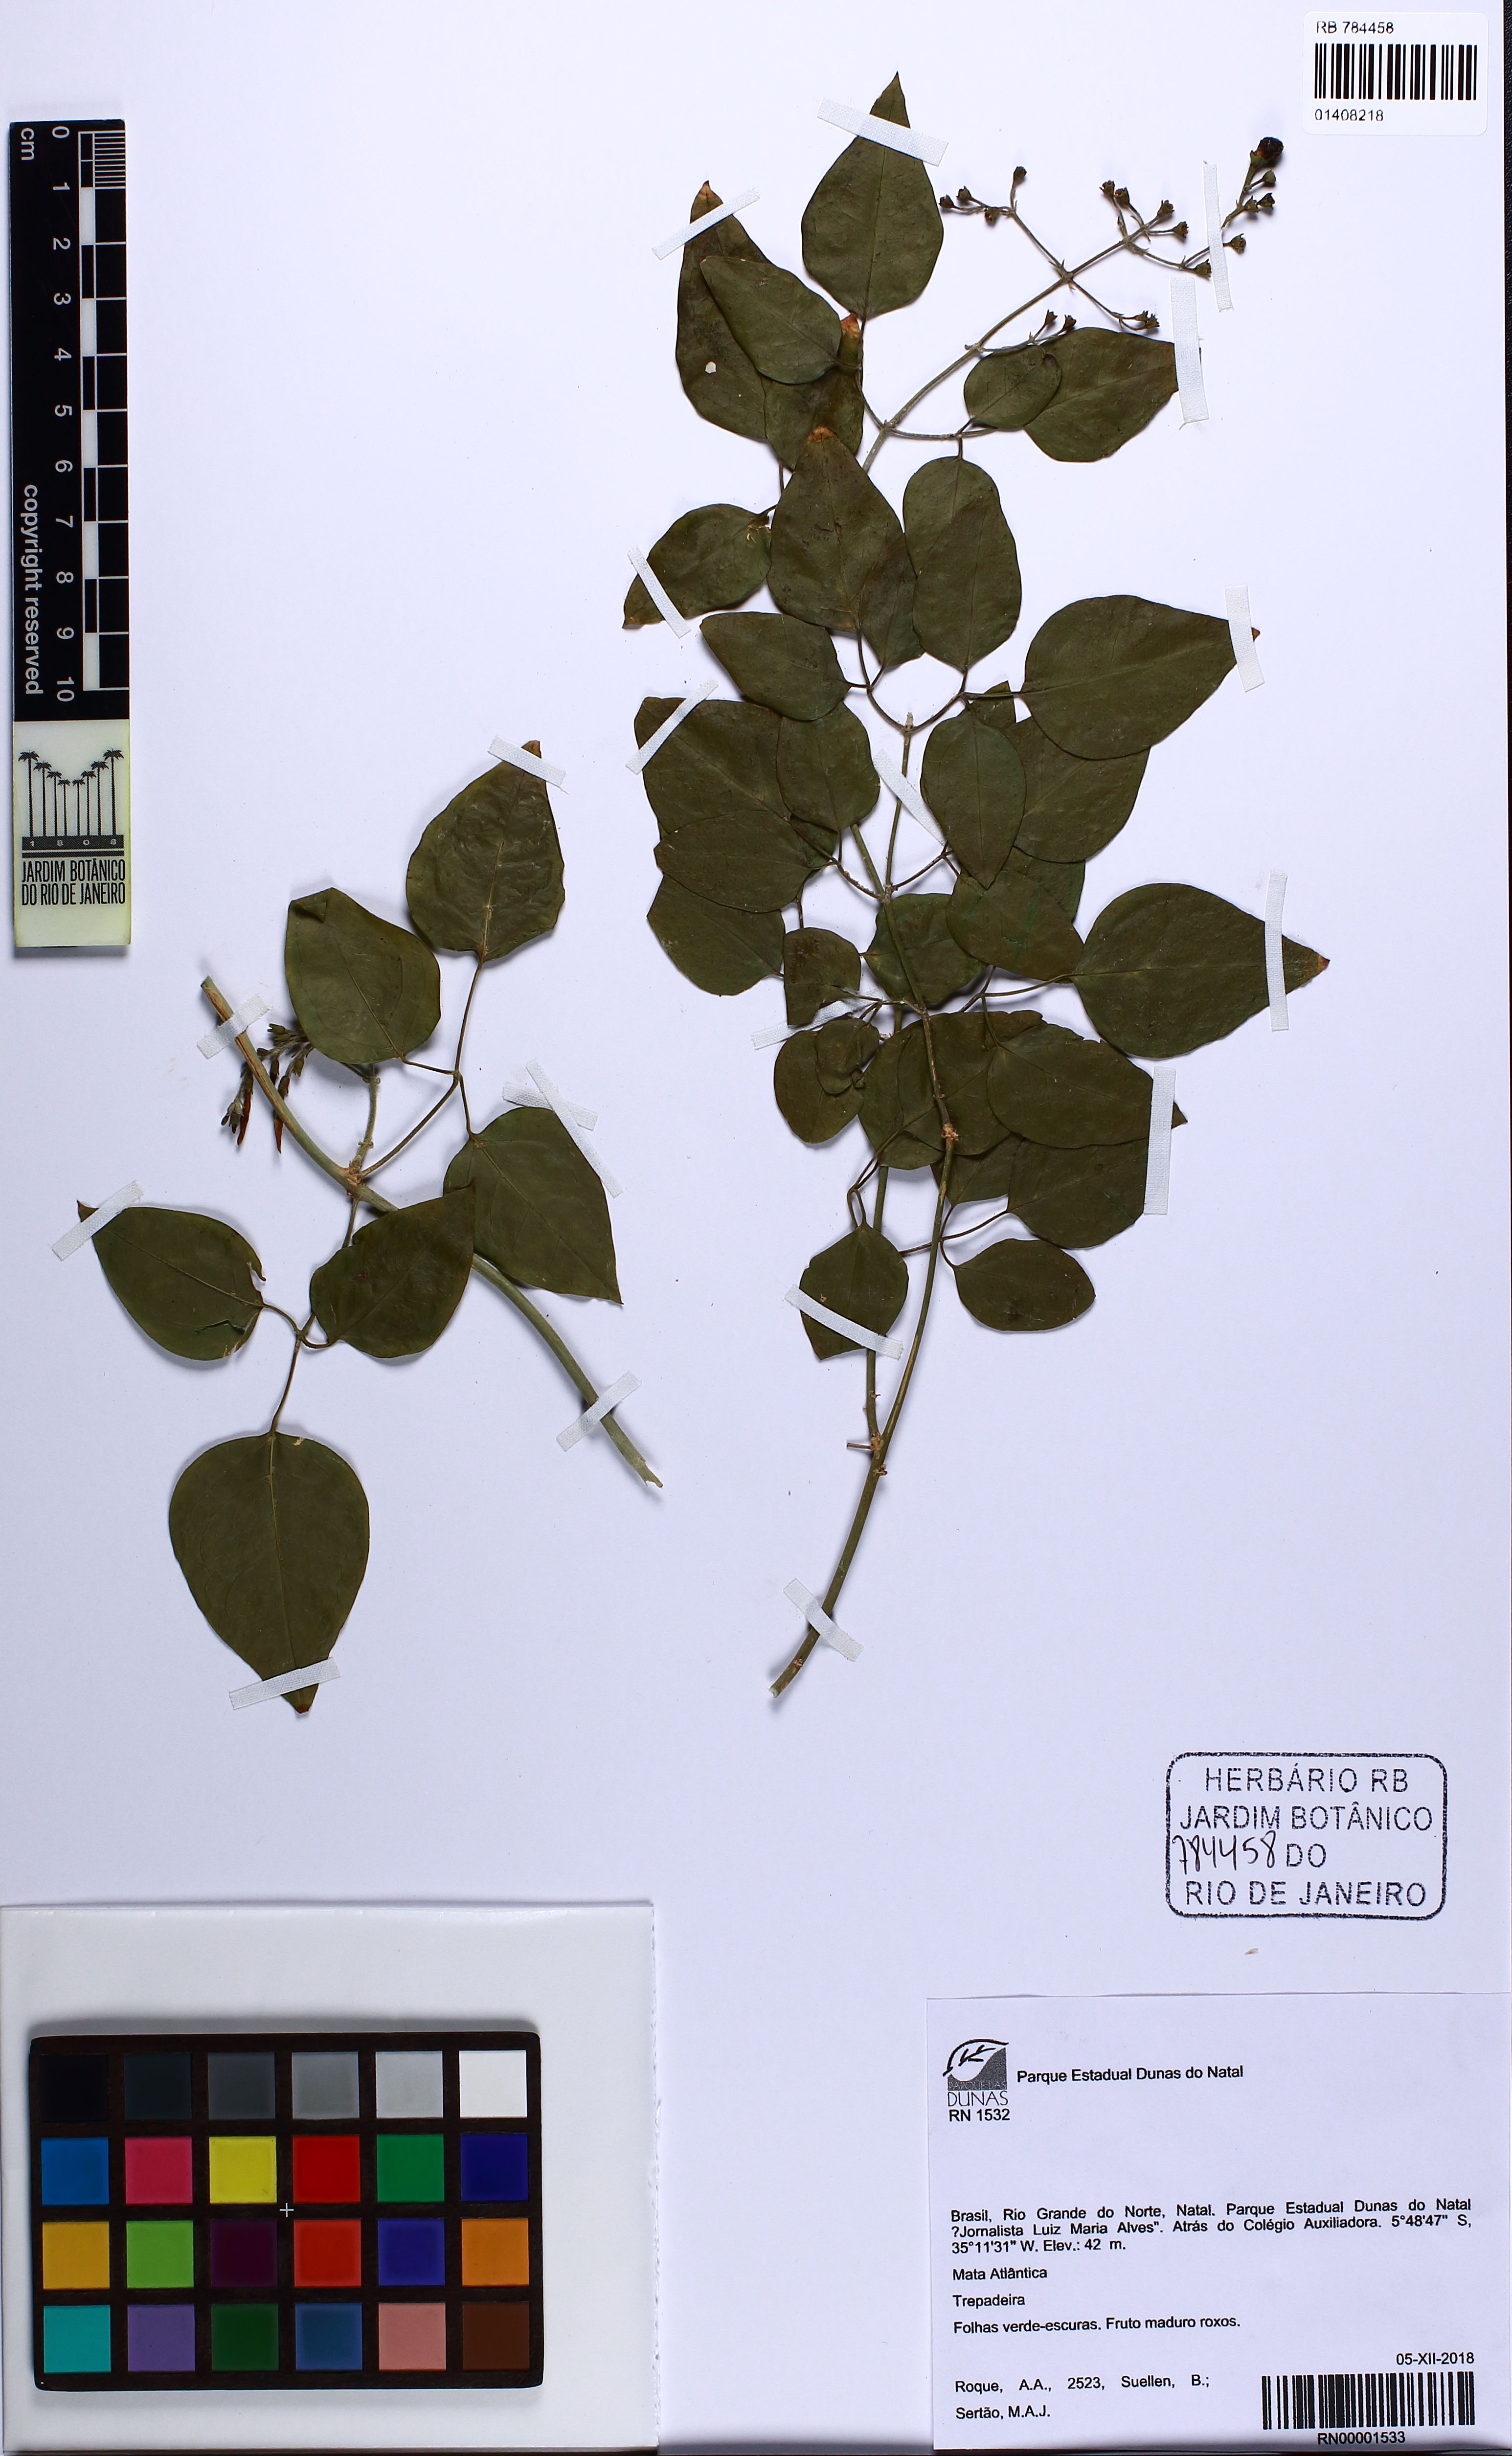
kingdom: Plantae
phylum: Tracheophyta
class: Magnoliopsida
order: Sapindales
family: Anacardiaceae
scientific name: Anacardiaceae
